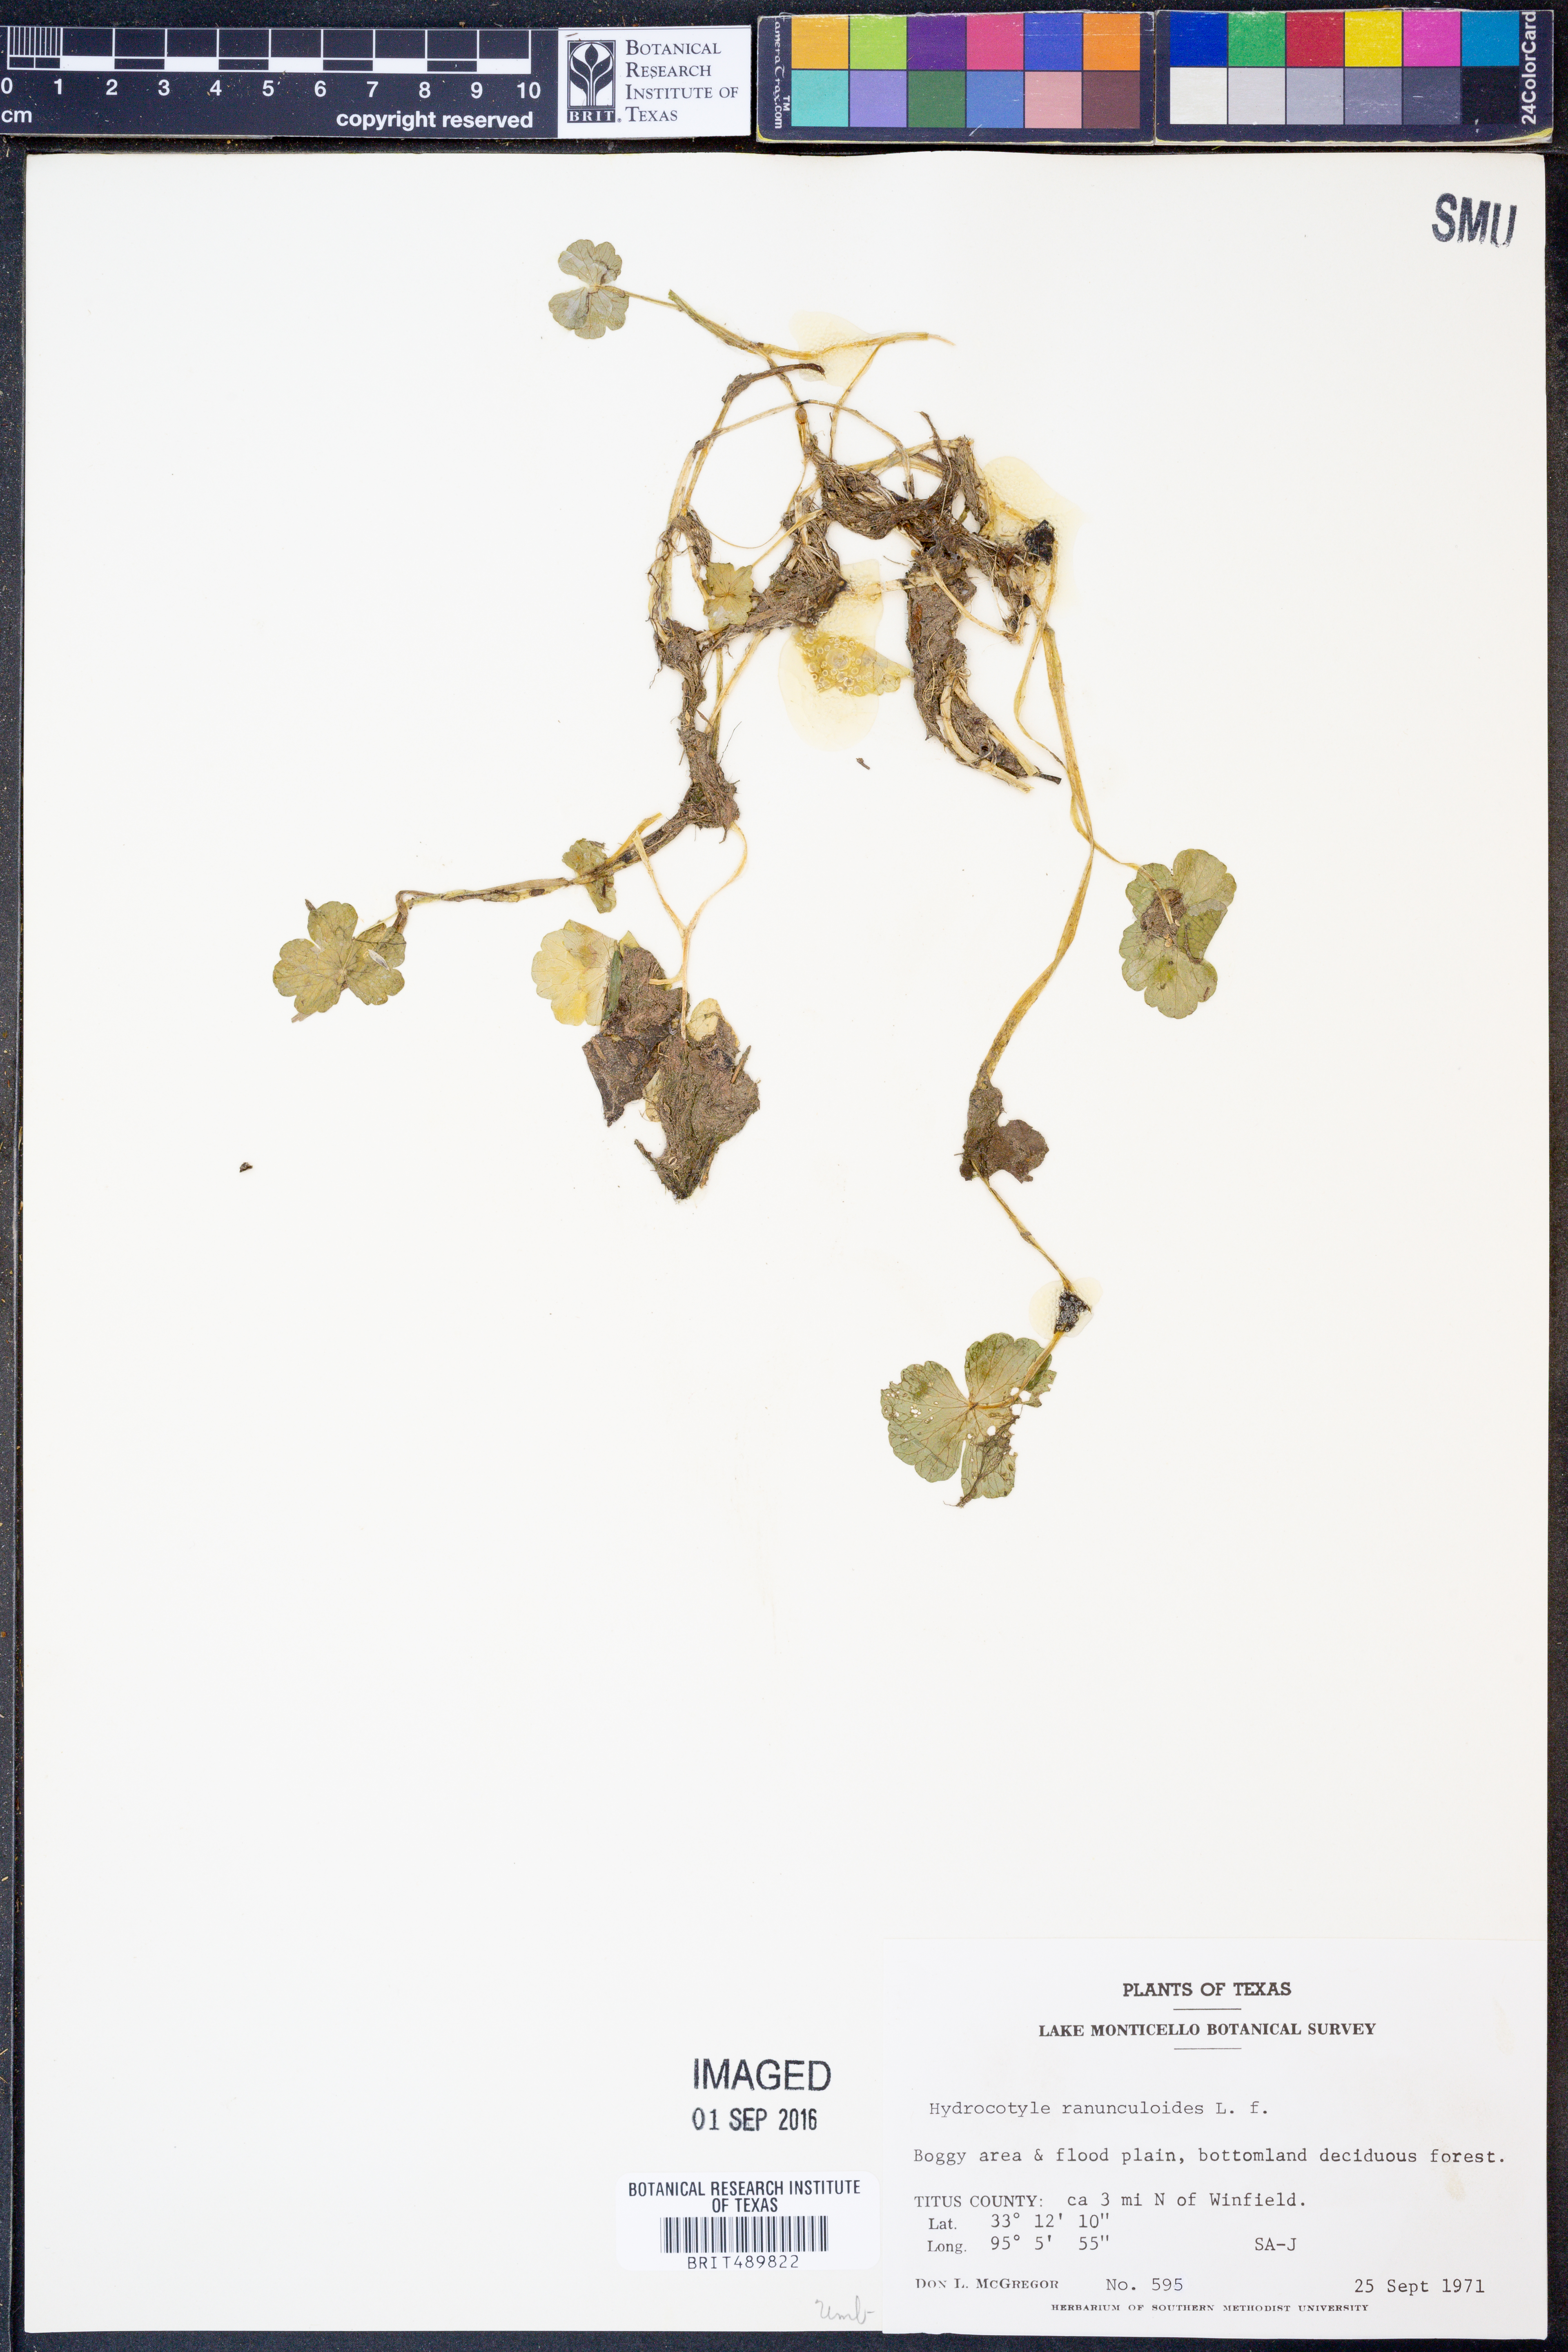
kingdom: Plantae
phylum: Tracheophyta
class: Magnoliopsida
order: Apiales
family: Araliaceae
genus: Hydrocotyle
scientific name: Hydrocotyle ranunculoides
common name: Floating pennywort
